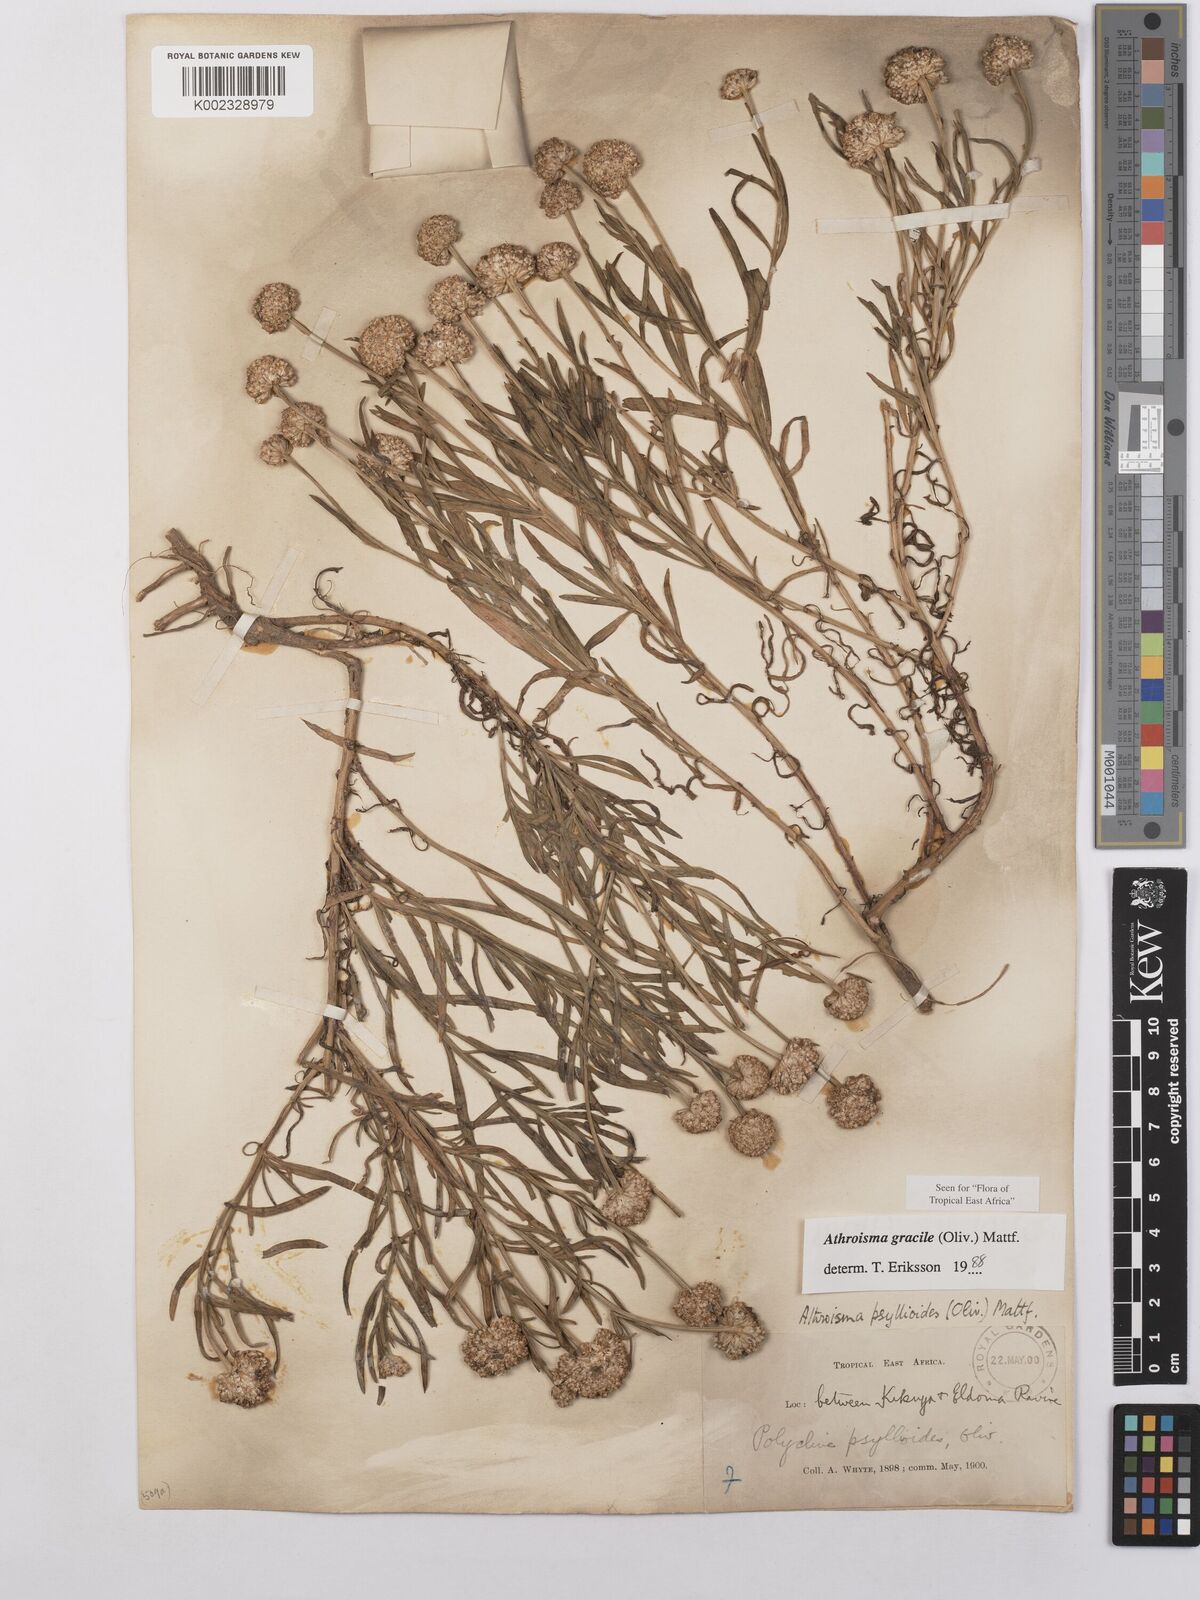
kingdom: Plantae
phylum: Tracheophyta
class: Magnoliopsida
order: Asterales
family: Asteraceae
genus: Athroisma
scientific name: Athroisma gracile
